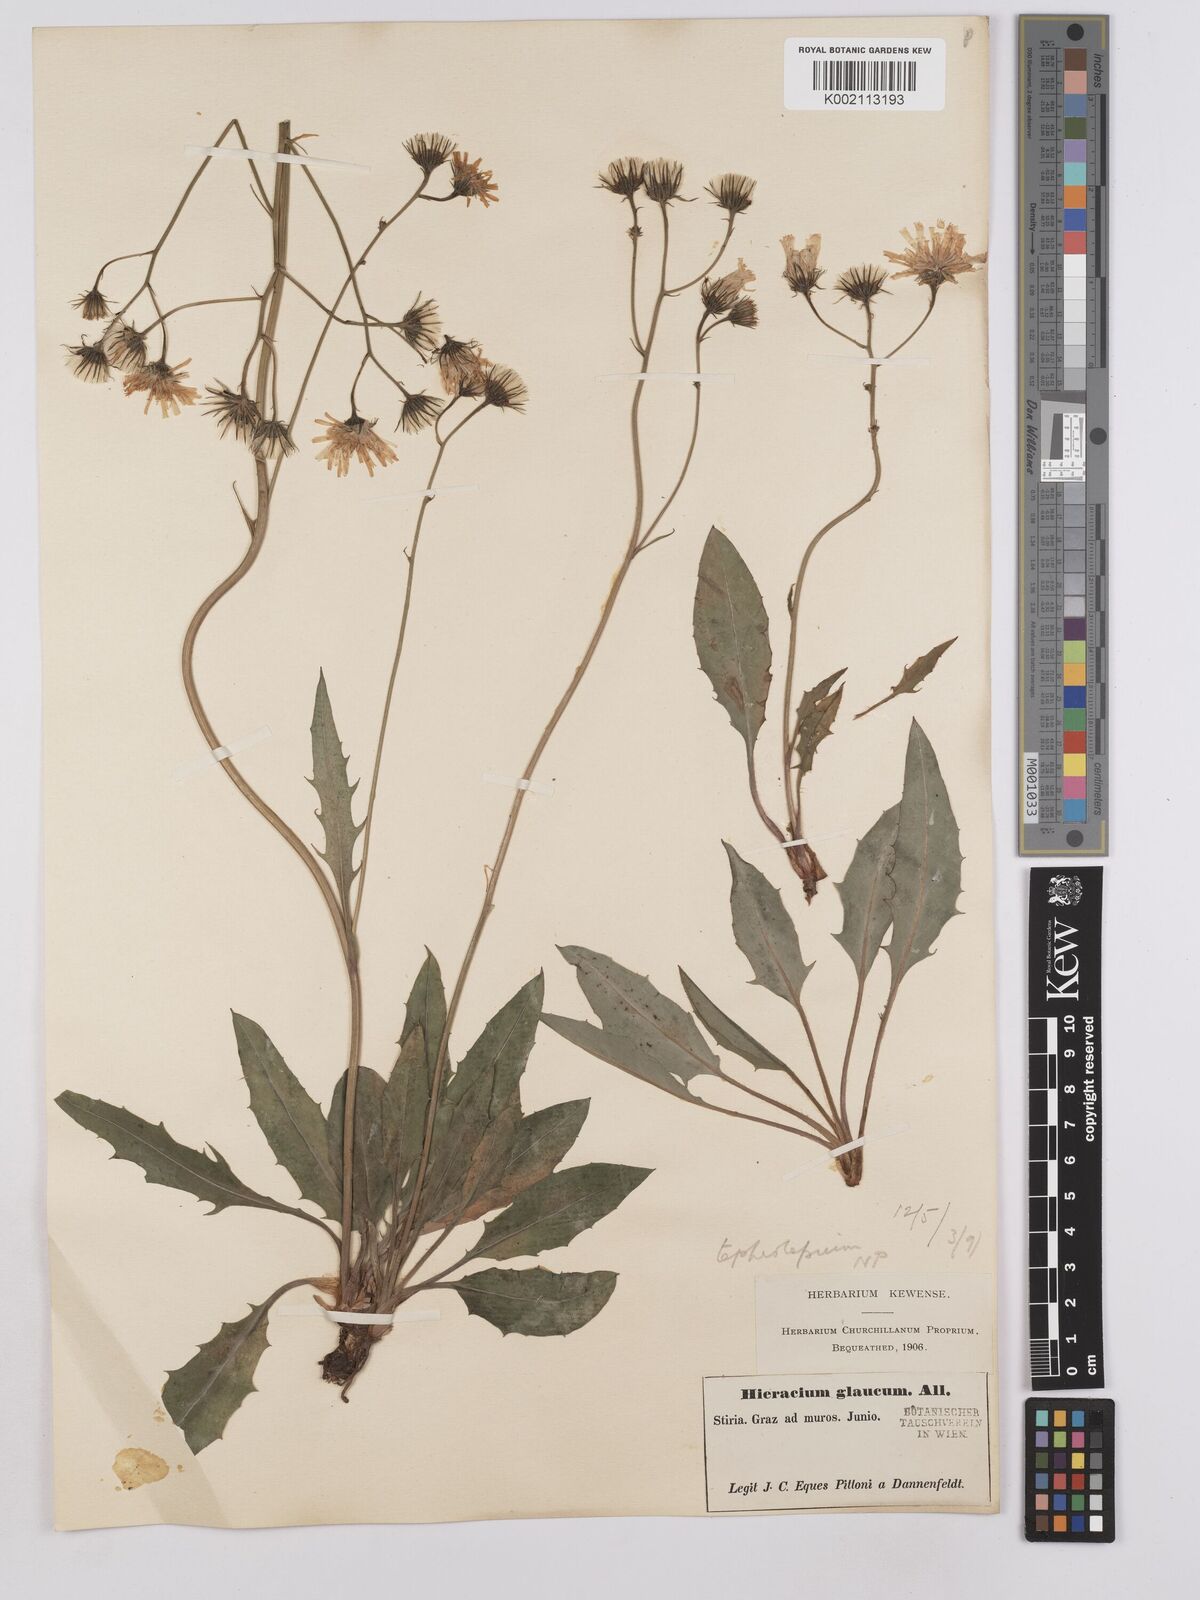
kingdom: Plantae
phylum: Tracheophyta
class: Magnoliopsida
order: Asterales
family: Asteraceae
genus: Crepis
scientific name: Crepis blattarioides
